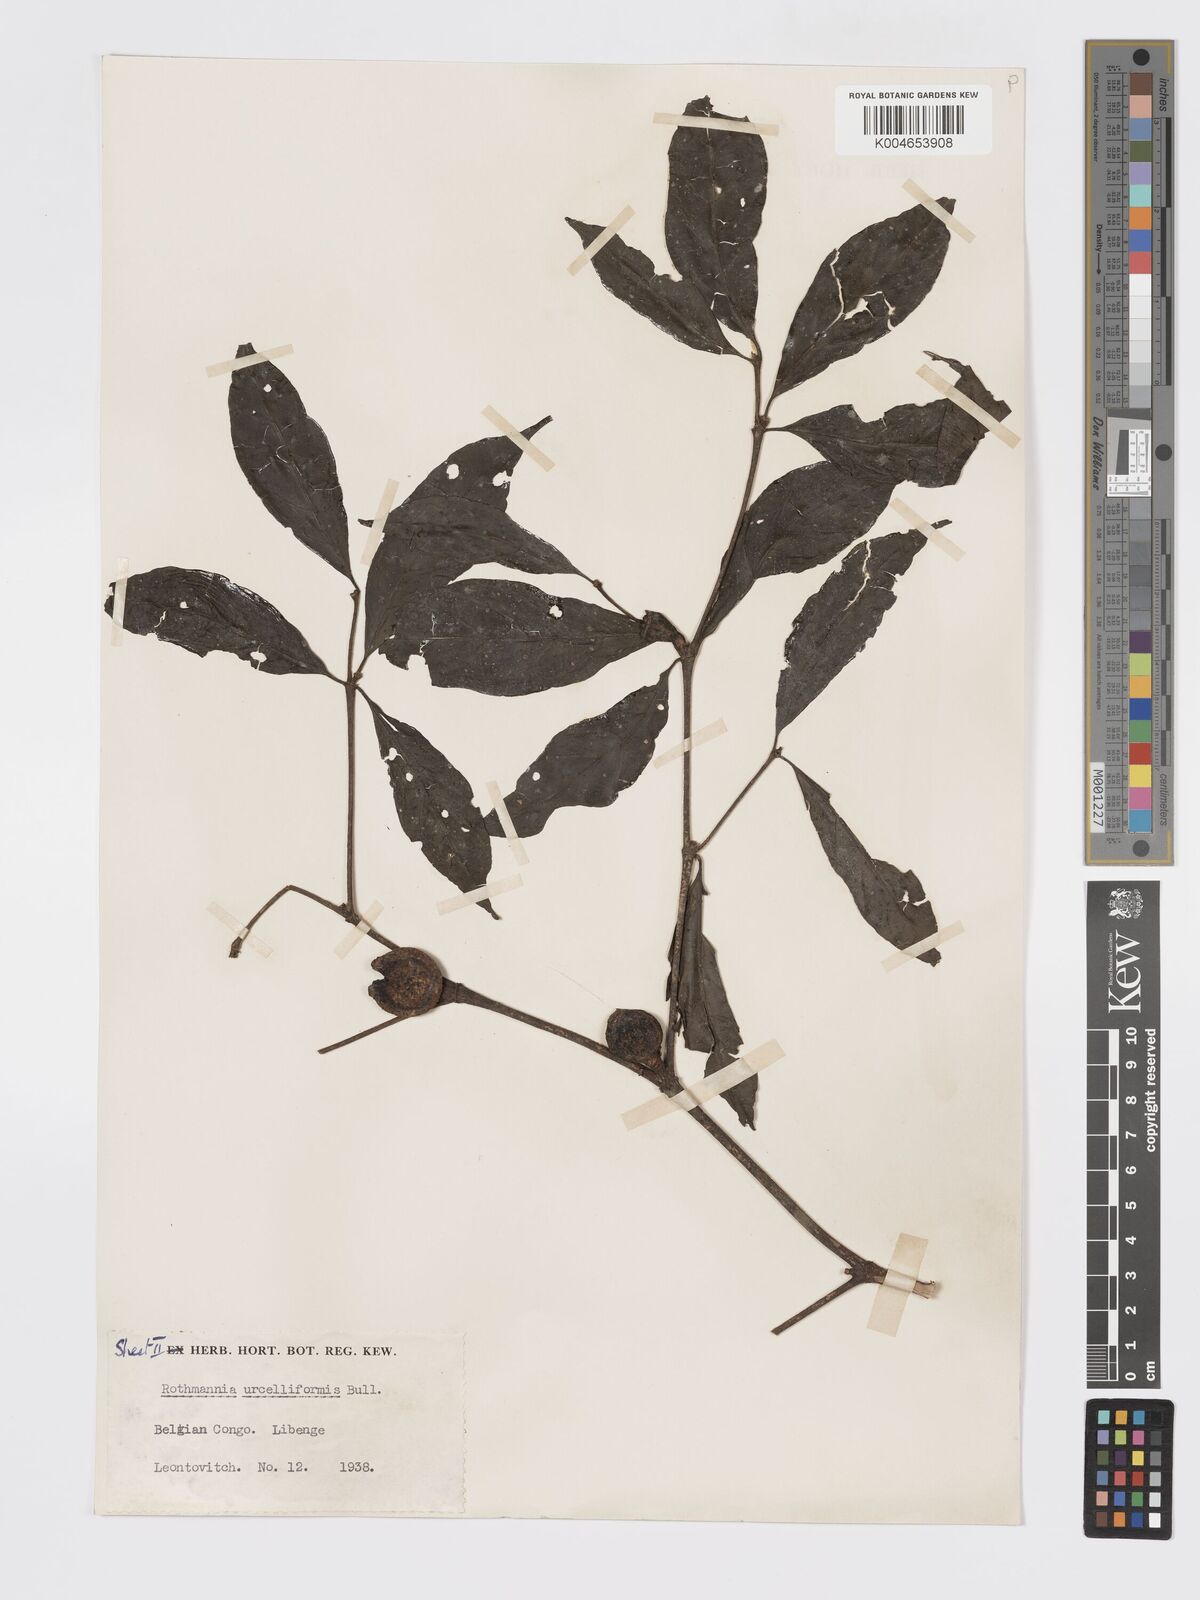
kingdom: Plantae
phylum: Tracheophyta
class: Magnoliopsida
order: Gentianales
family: Rubiaceae
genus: Rothmannia
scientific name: Rothmannia urcelliformis
